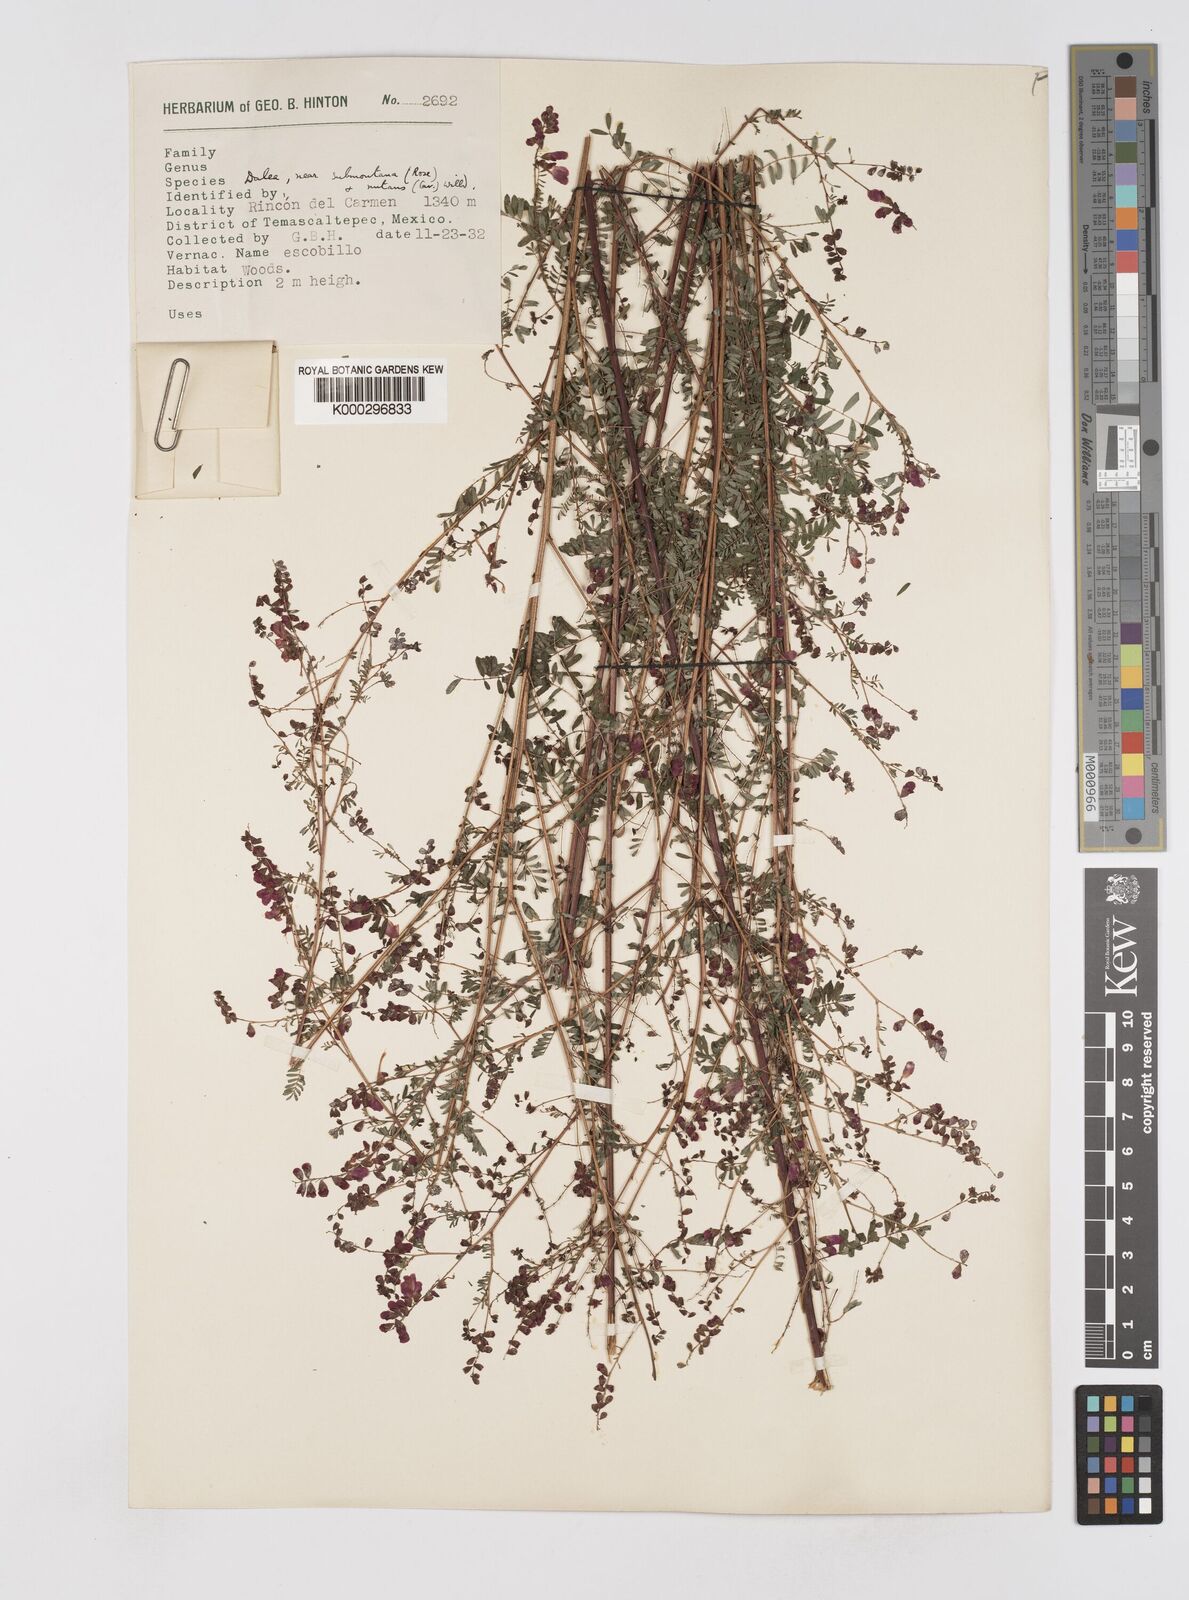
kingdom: Plantae
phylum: Tracheophyta
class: Magnoliopsida
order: Fabales
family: Fabaceae
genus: Marina
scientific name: Marina nutans
